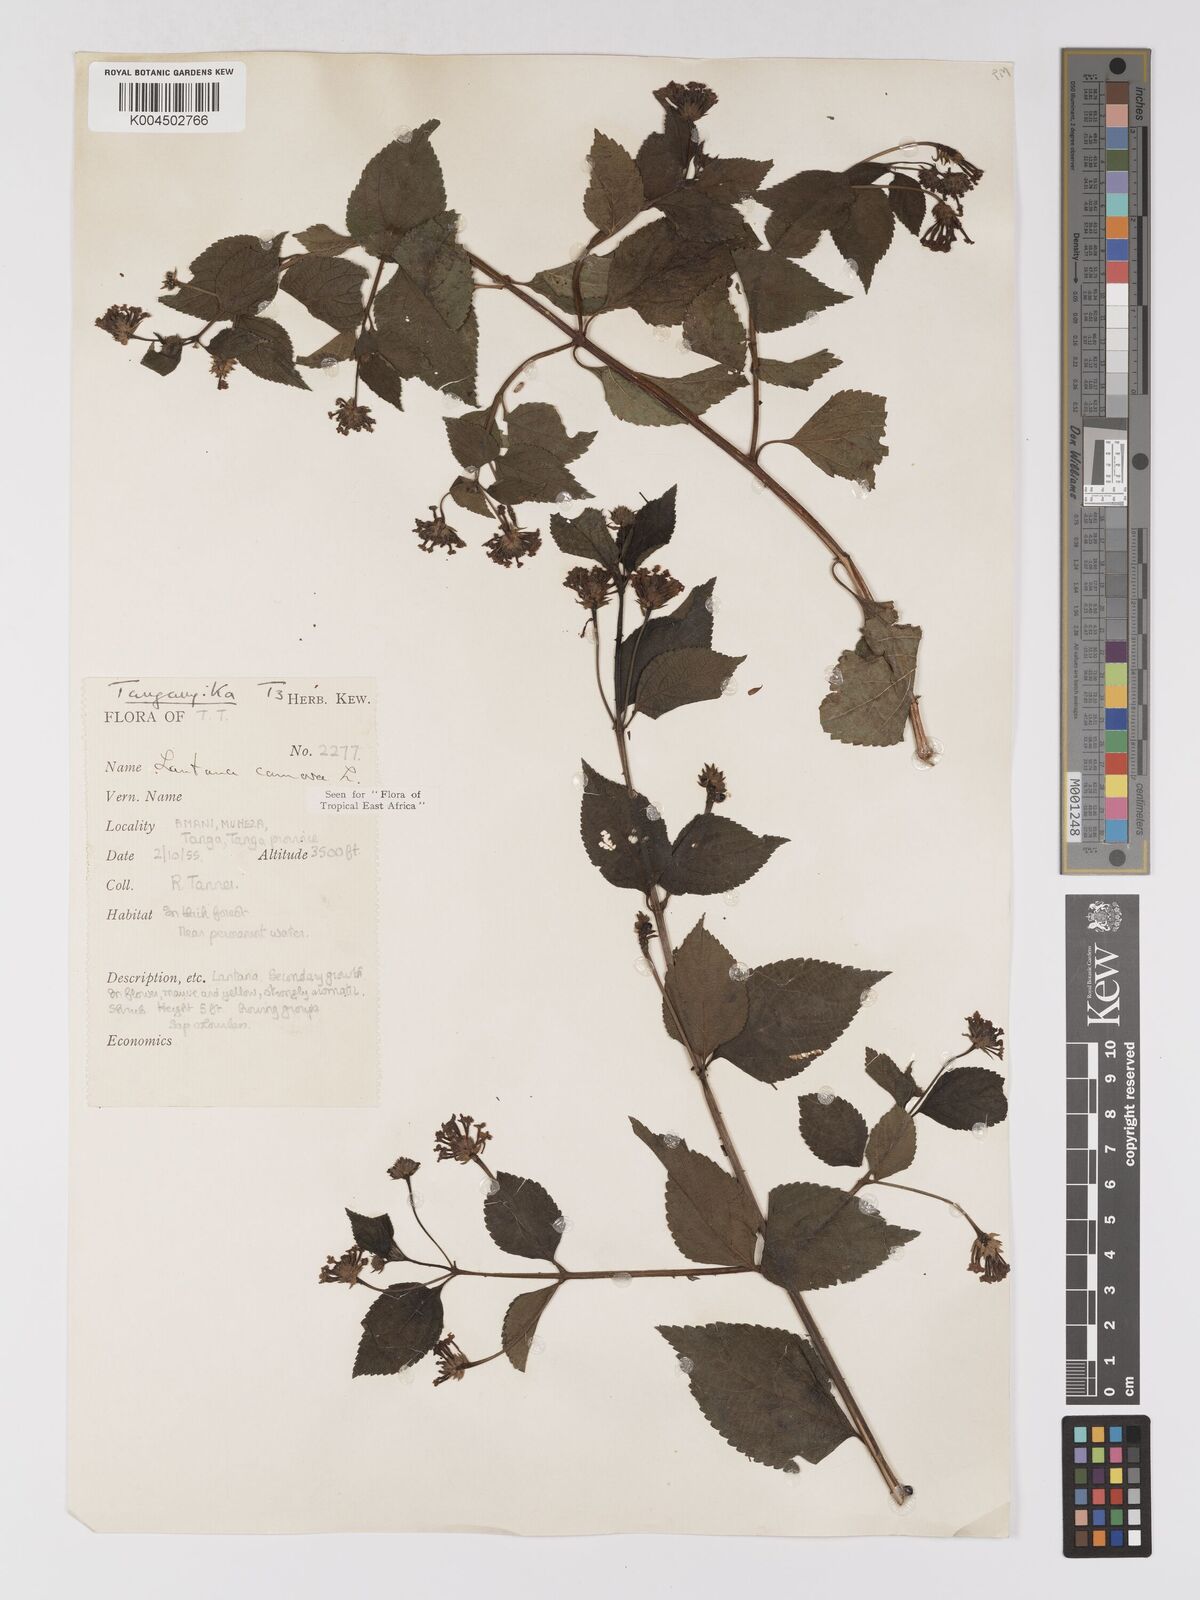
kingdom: Plantae
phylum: Tracheophyta
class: Magnoliopsida
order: Lamiales
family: Verbenaceae
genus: Lantana
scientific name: Lantana camara
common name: Lantana
